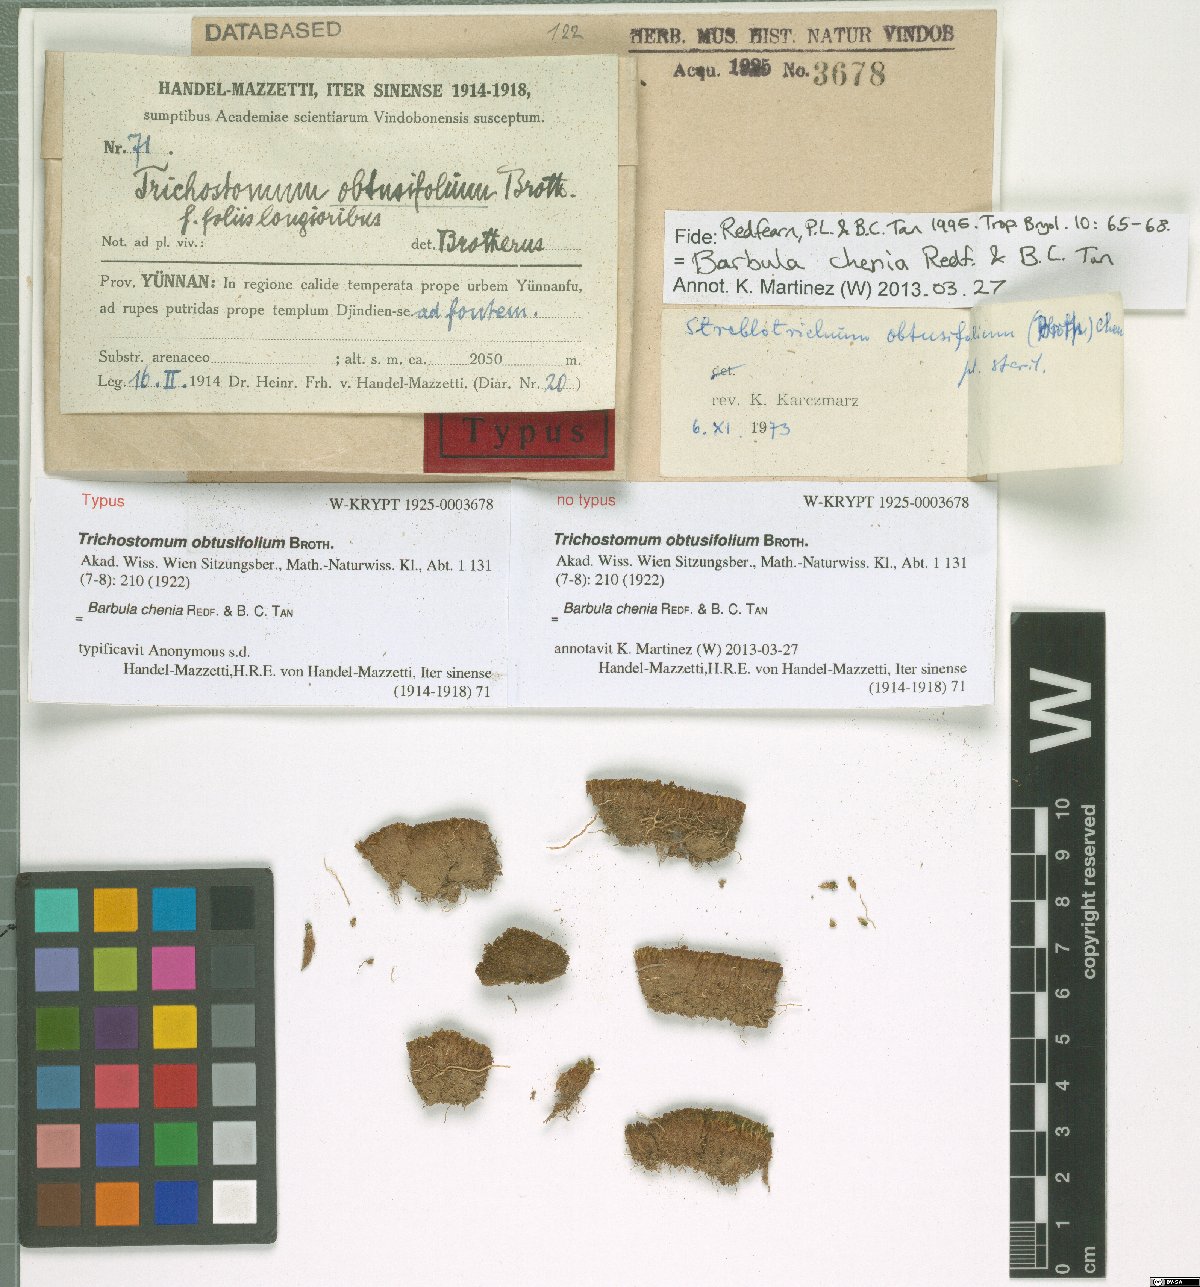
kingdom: Plantae
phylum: Bryophyta
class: Bryopsida
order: Pottiales
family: Pottiaceae
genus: Barbula
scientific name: Barbula chenia
